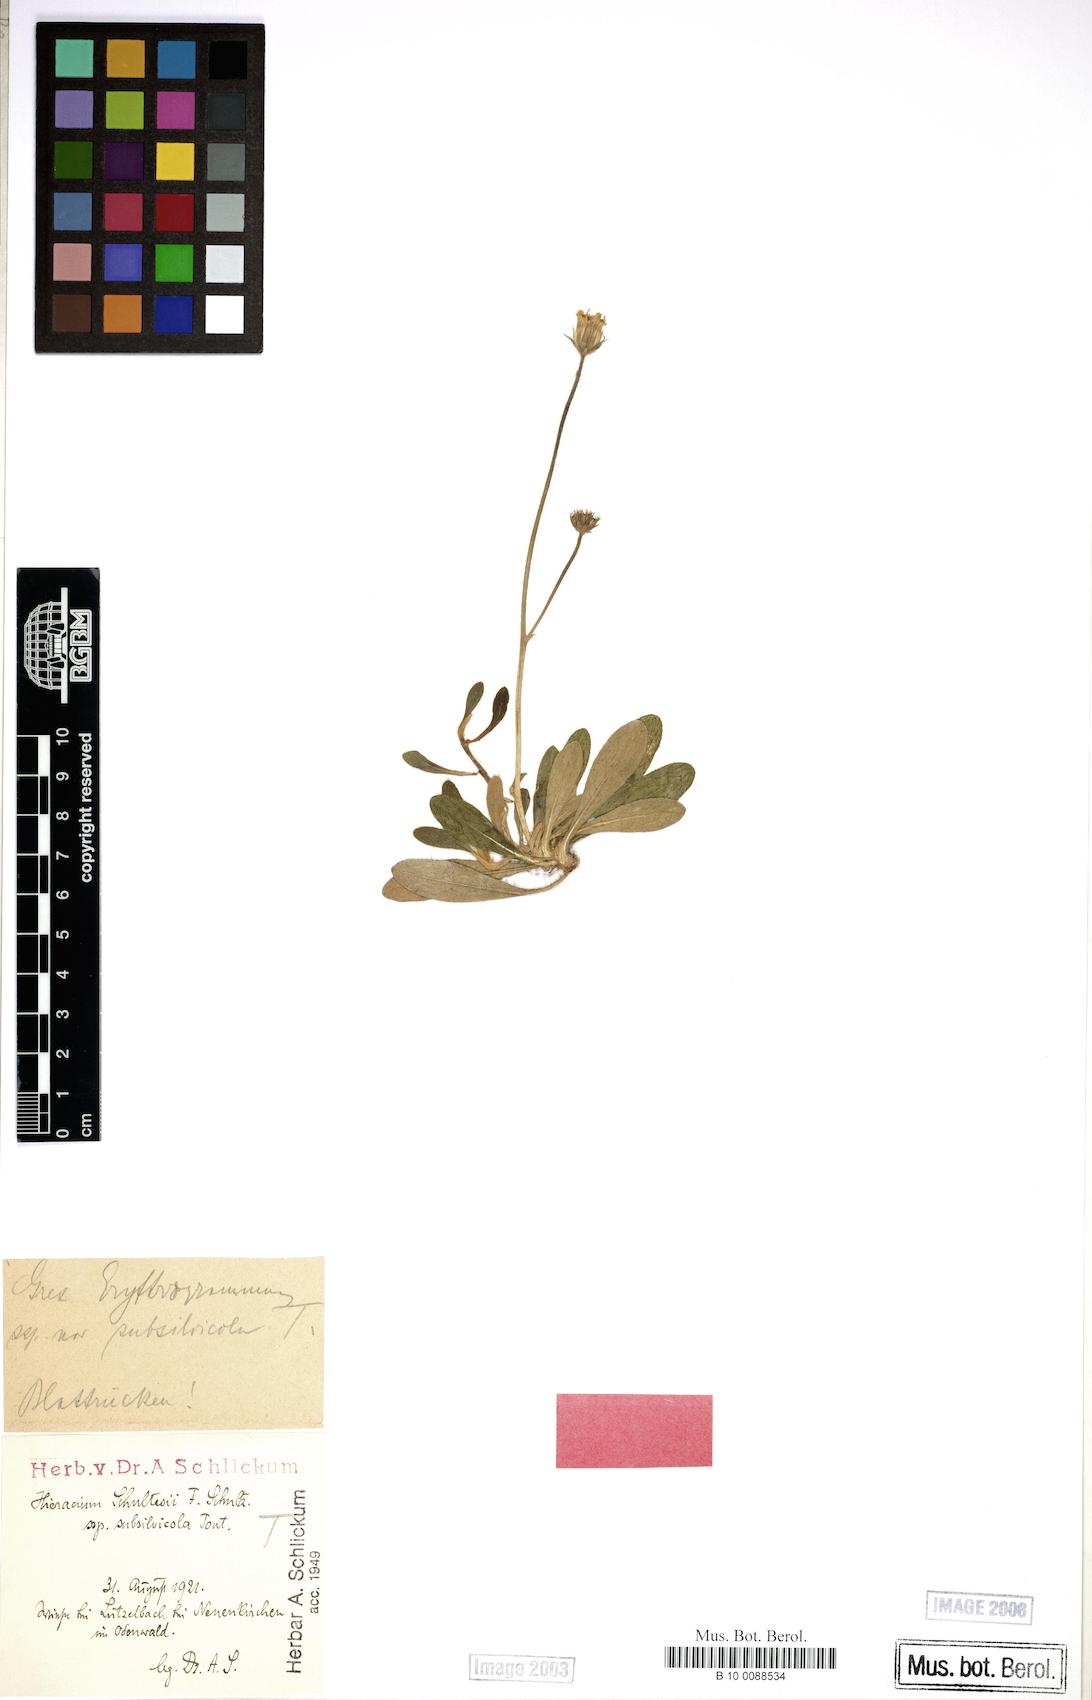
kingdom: Plantae
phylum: Tracheophyta
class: Magnoliopsida
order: Asterales
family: Asteraceae
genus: Pilosella
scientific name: Pilosella schultesii
